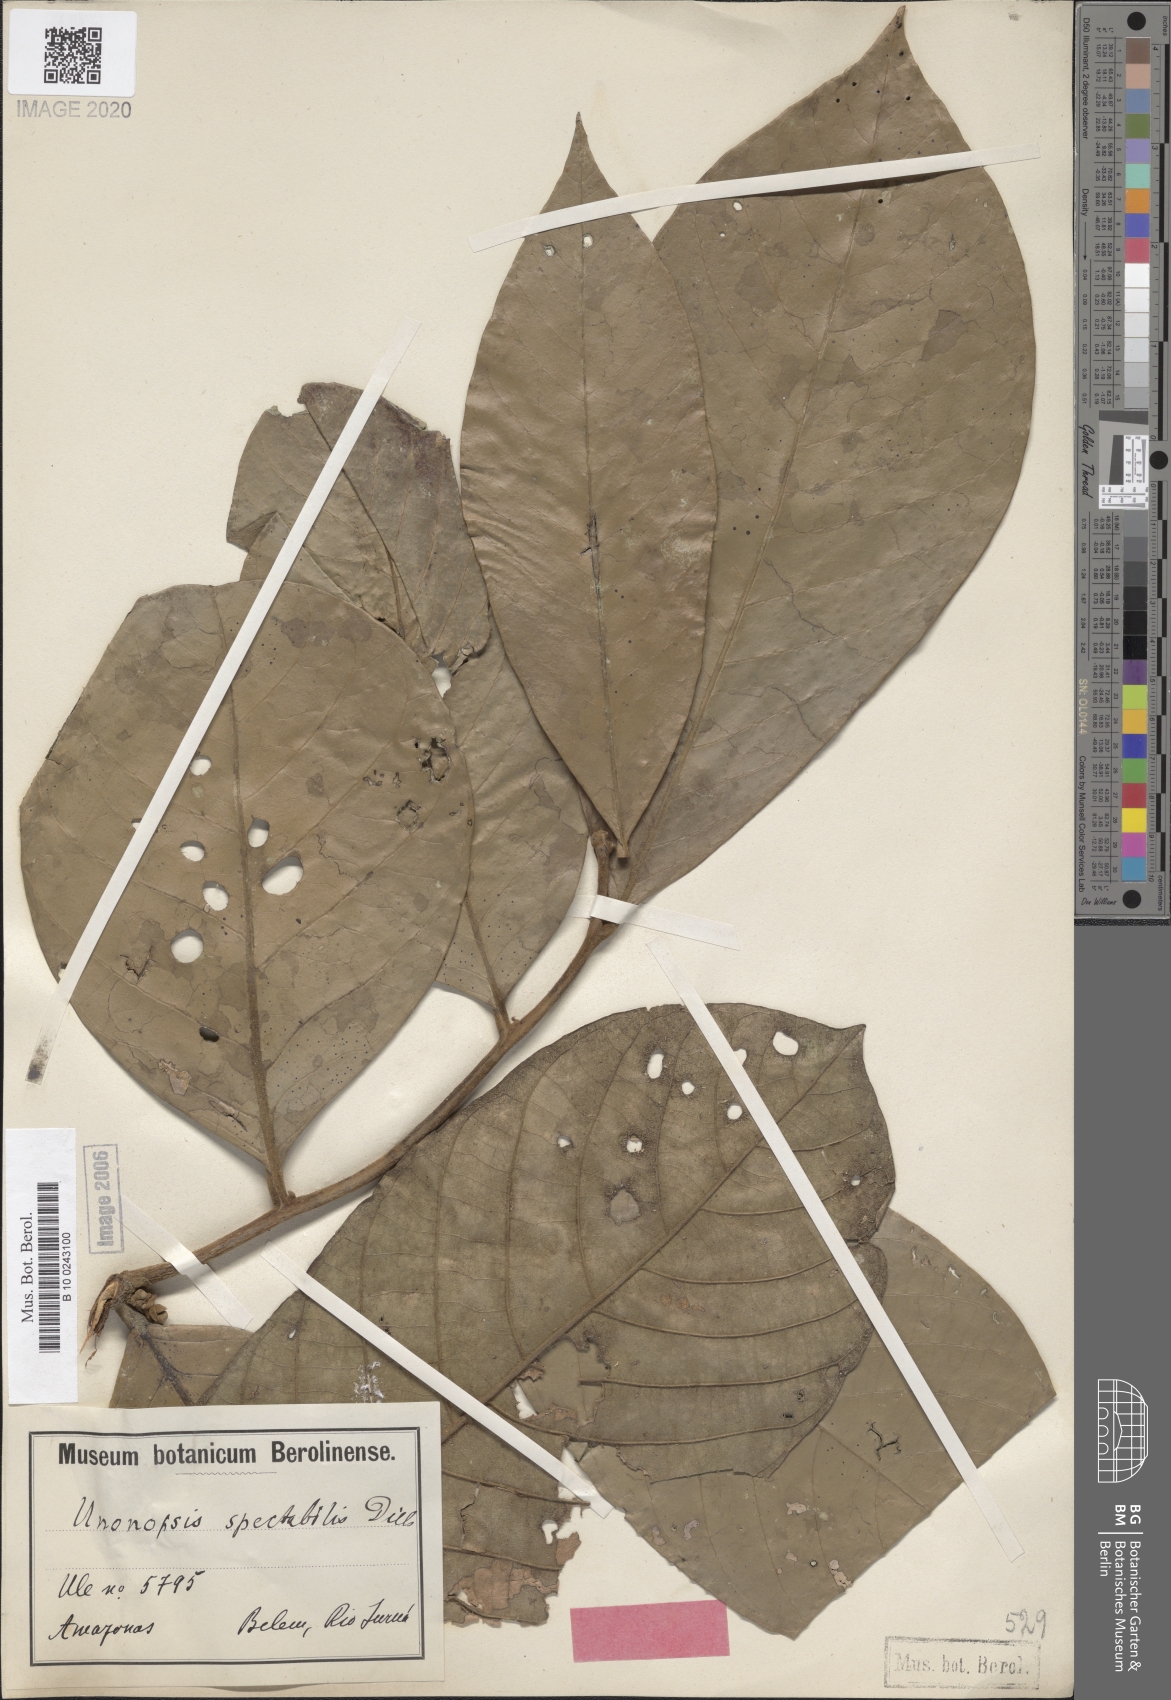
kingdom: Plantae
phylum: Tracheophyta
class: Magnoliopsida
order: Magnoliales
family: Annonaceae
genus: Unonopsis
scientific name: Unonopsis spectabilis
